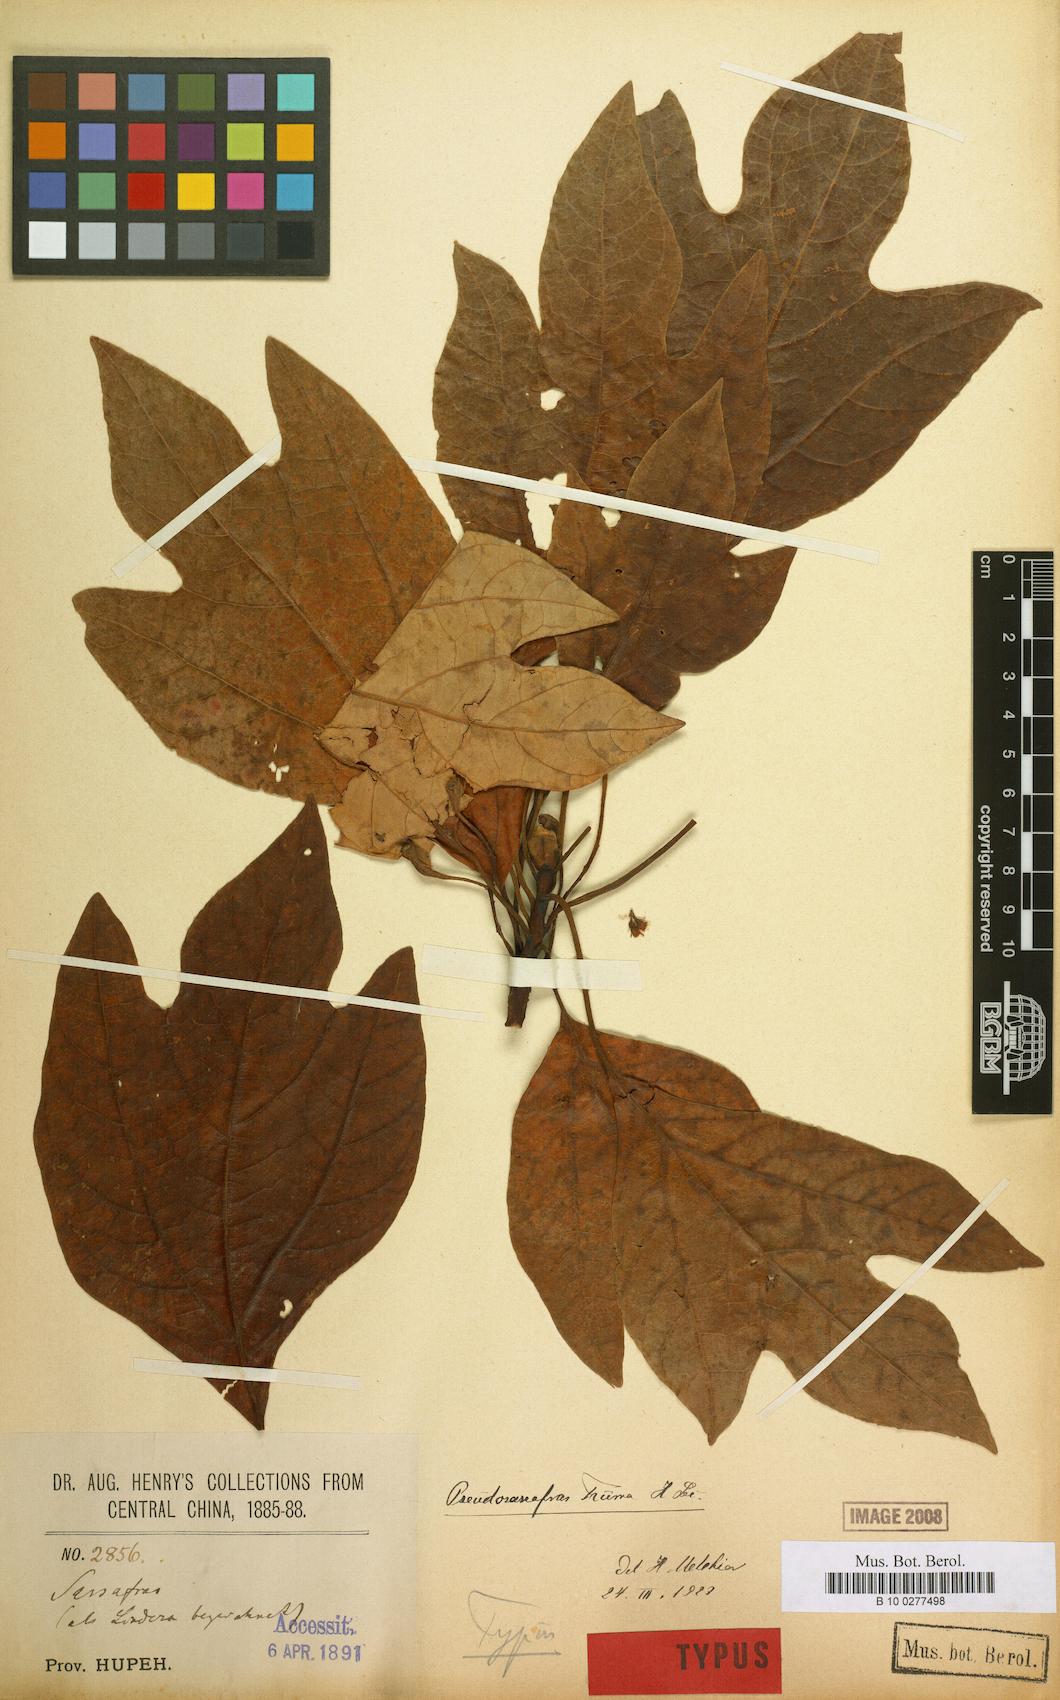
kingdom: Plantae
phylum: Tracheophyta
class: Magnoliopsida
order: Laurales
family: Lauraceae
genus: Sassafras
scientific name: Sassafras tzumu
